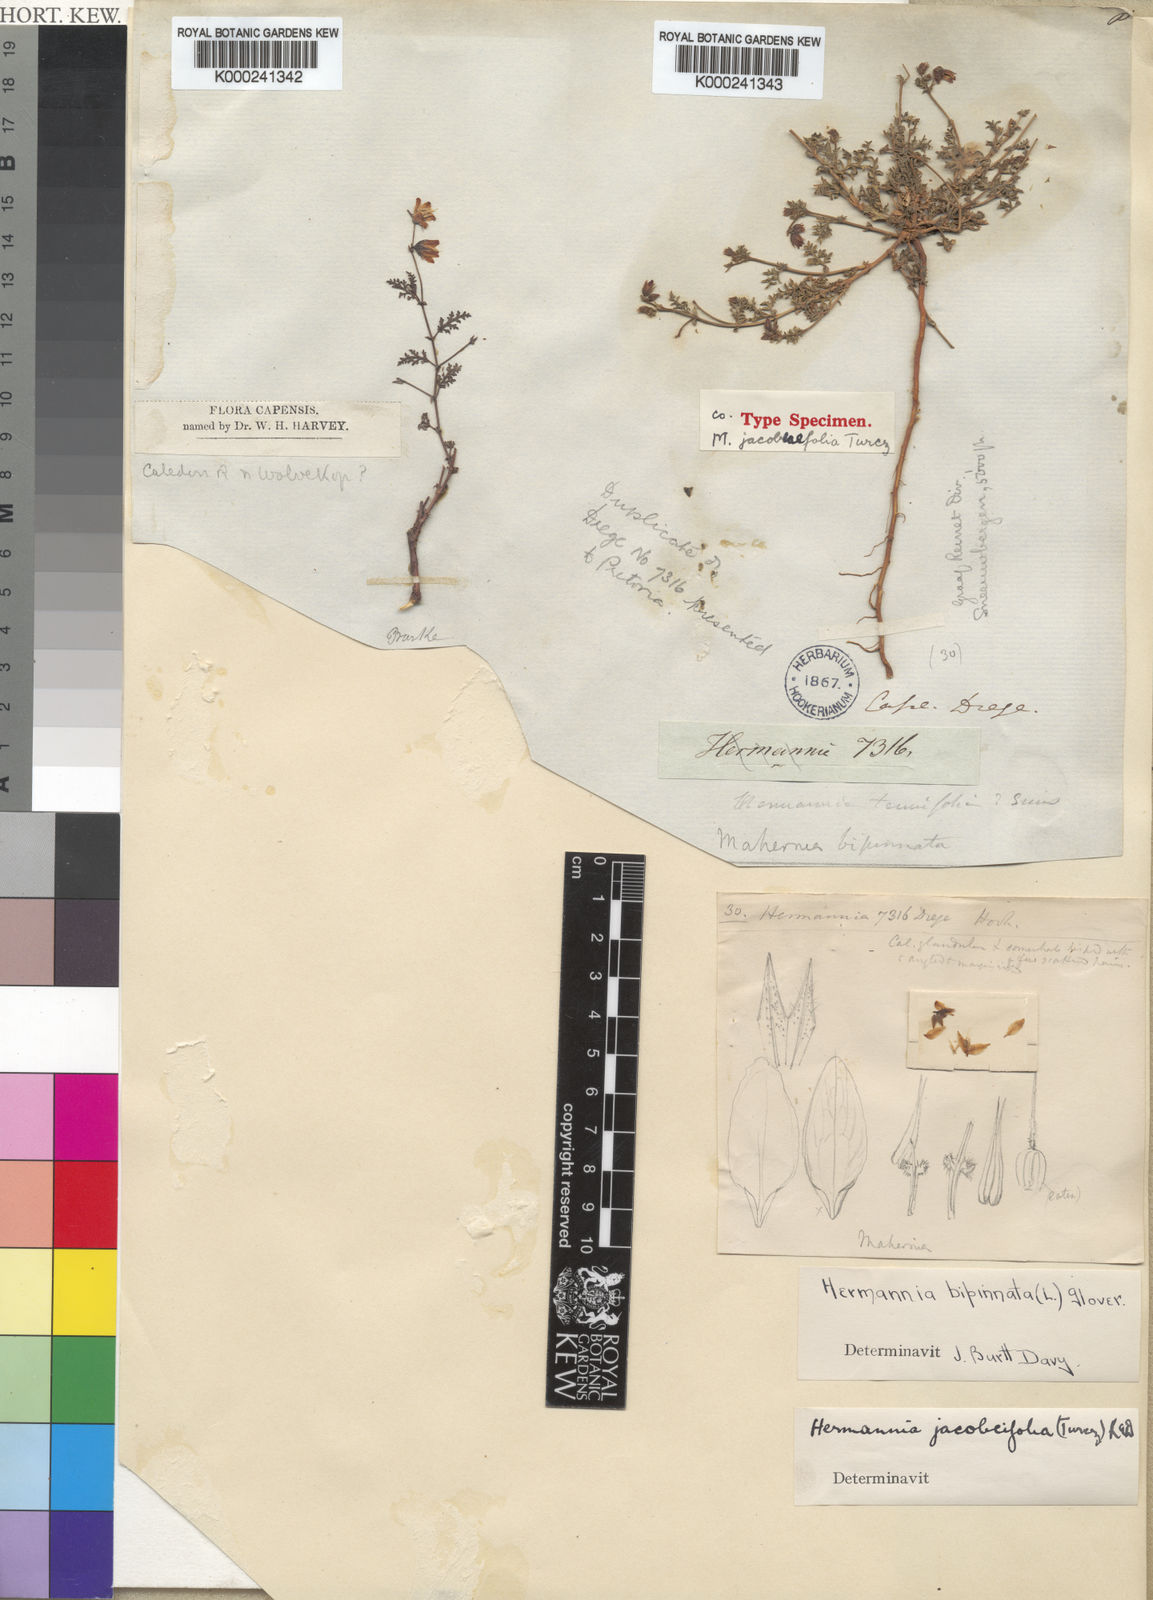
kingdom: Plantae
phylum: Tracheophyta
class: Magnoliopsida
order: Malvales
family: Malvaceae
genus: Hermannia
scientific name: Hermannia jacobeifolia
